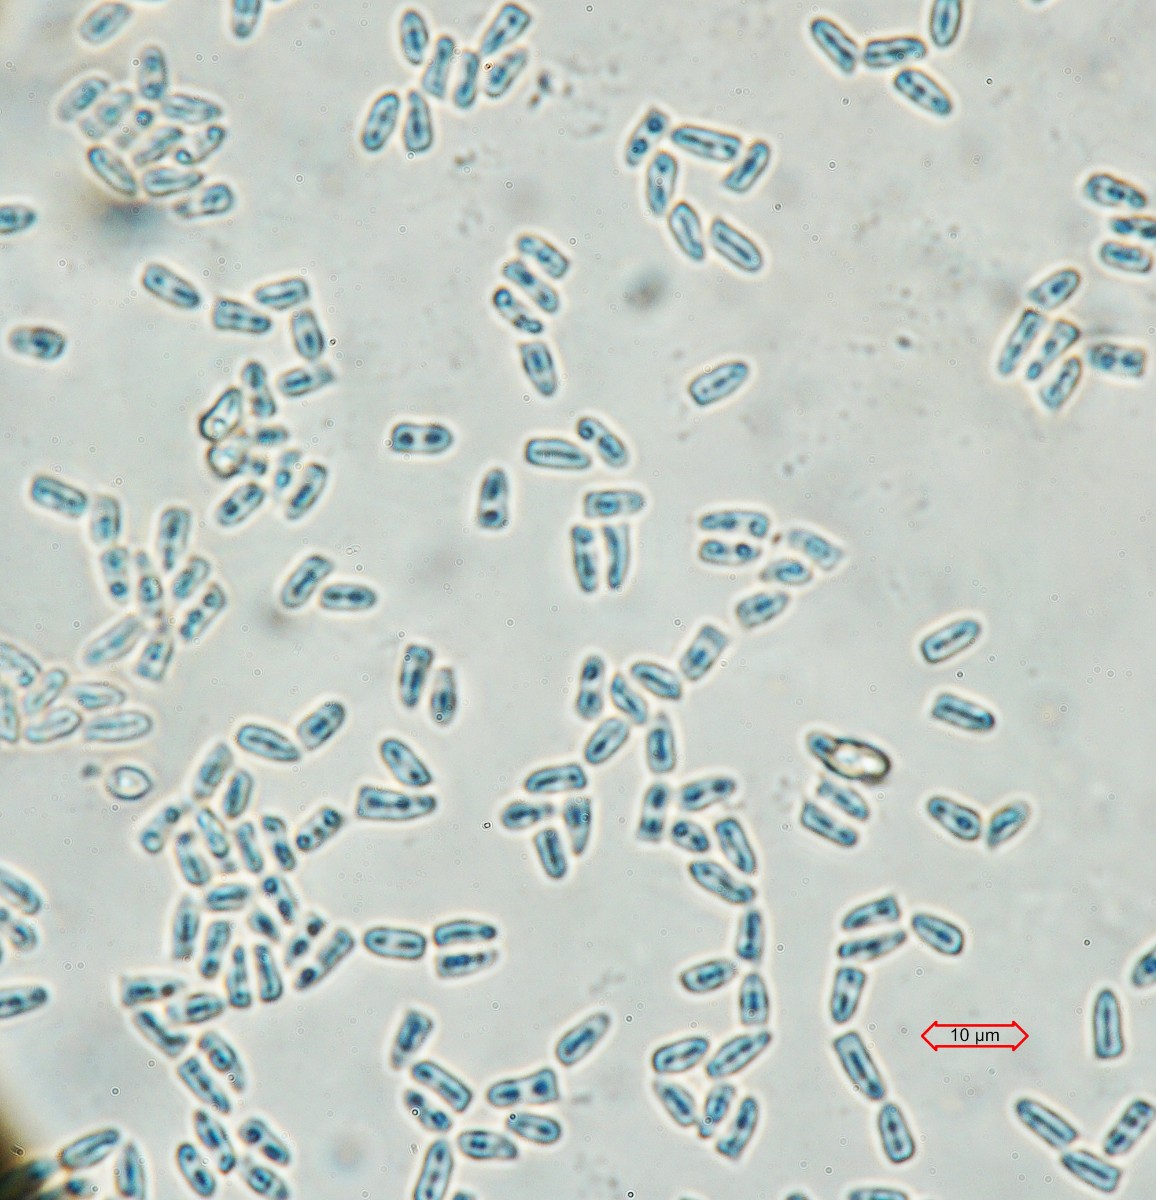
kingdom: Fungi
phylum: Basidiomycota
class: Agaricomycetes
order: Agaricales
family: Agaricaceae
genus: Lepiota
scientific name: Lepiota cristata
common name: stinkende parasolhat
